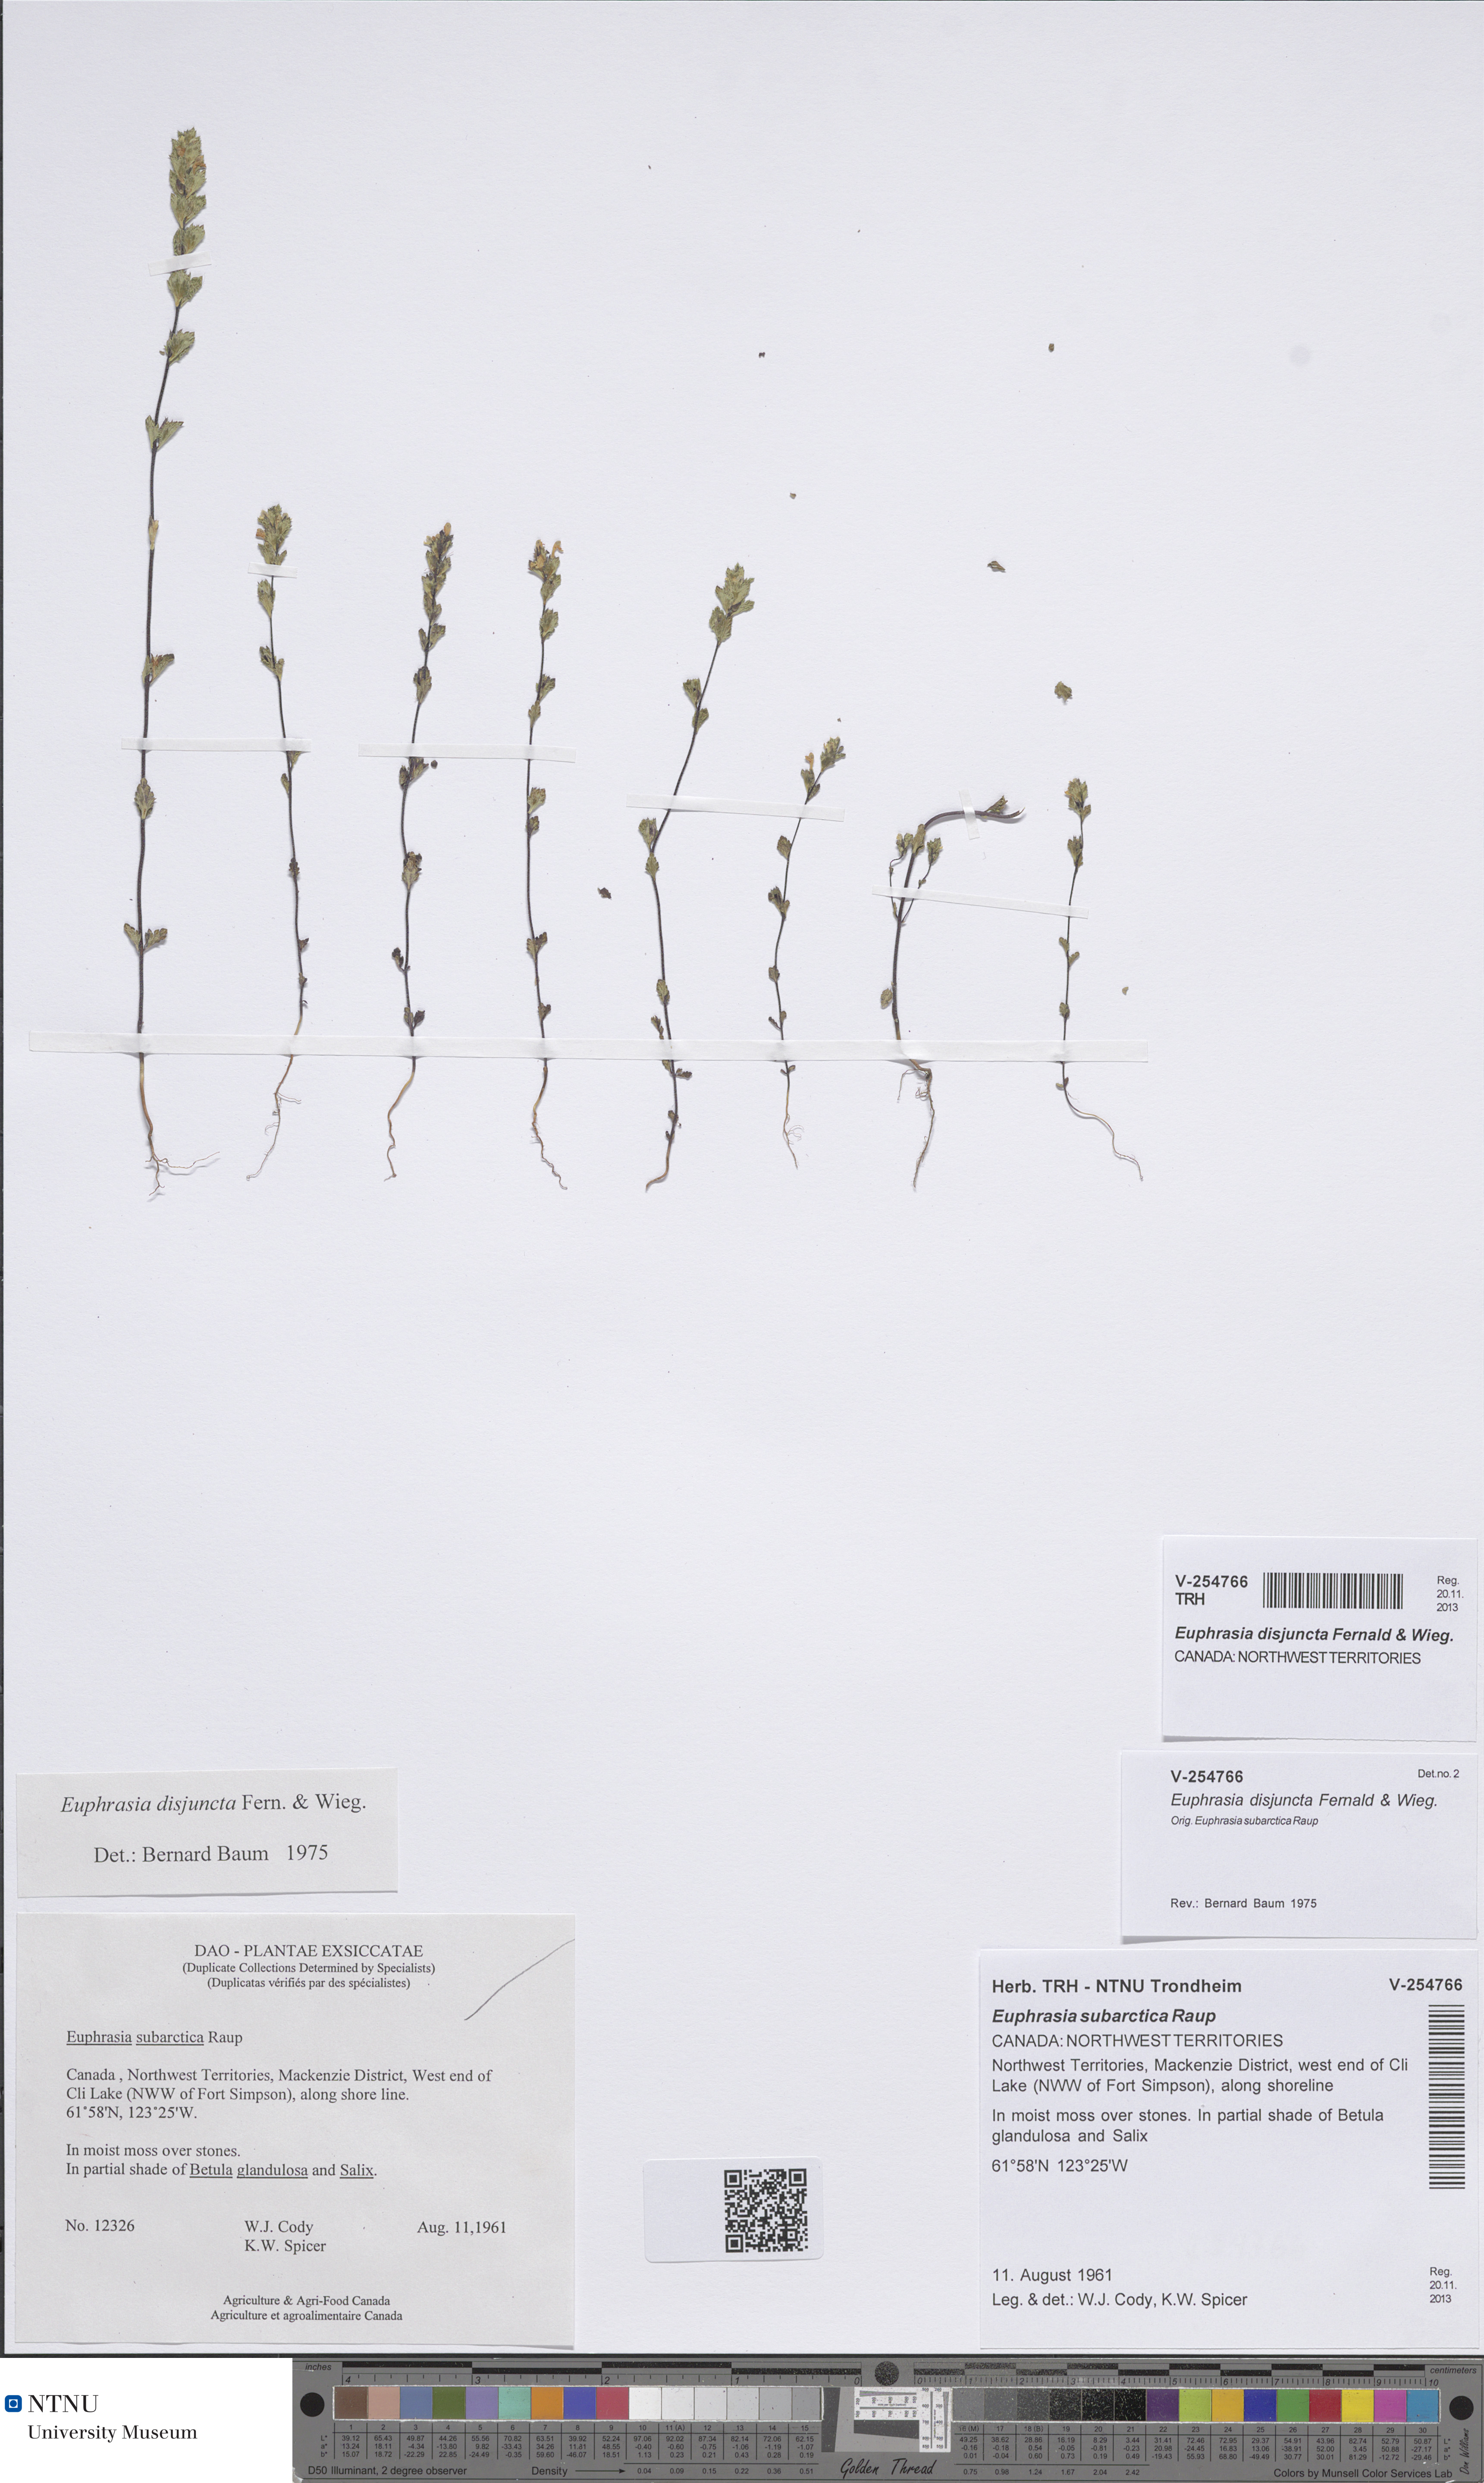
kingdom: Plantae
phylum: Tracheophyta
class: Magnoliopsida
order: Lamiales
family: Orobanchaceae
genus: Euphrasia
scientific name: Euphrasia disjuncta
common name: Polar eyebright
